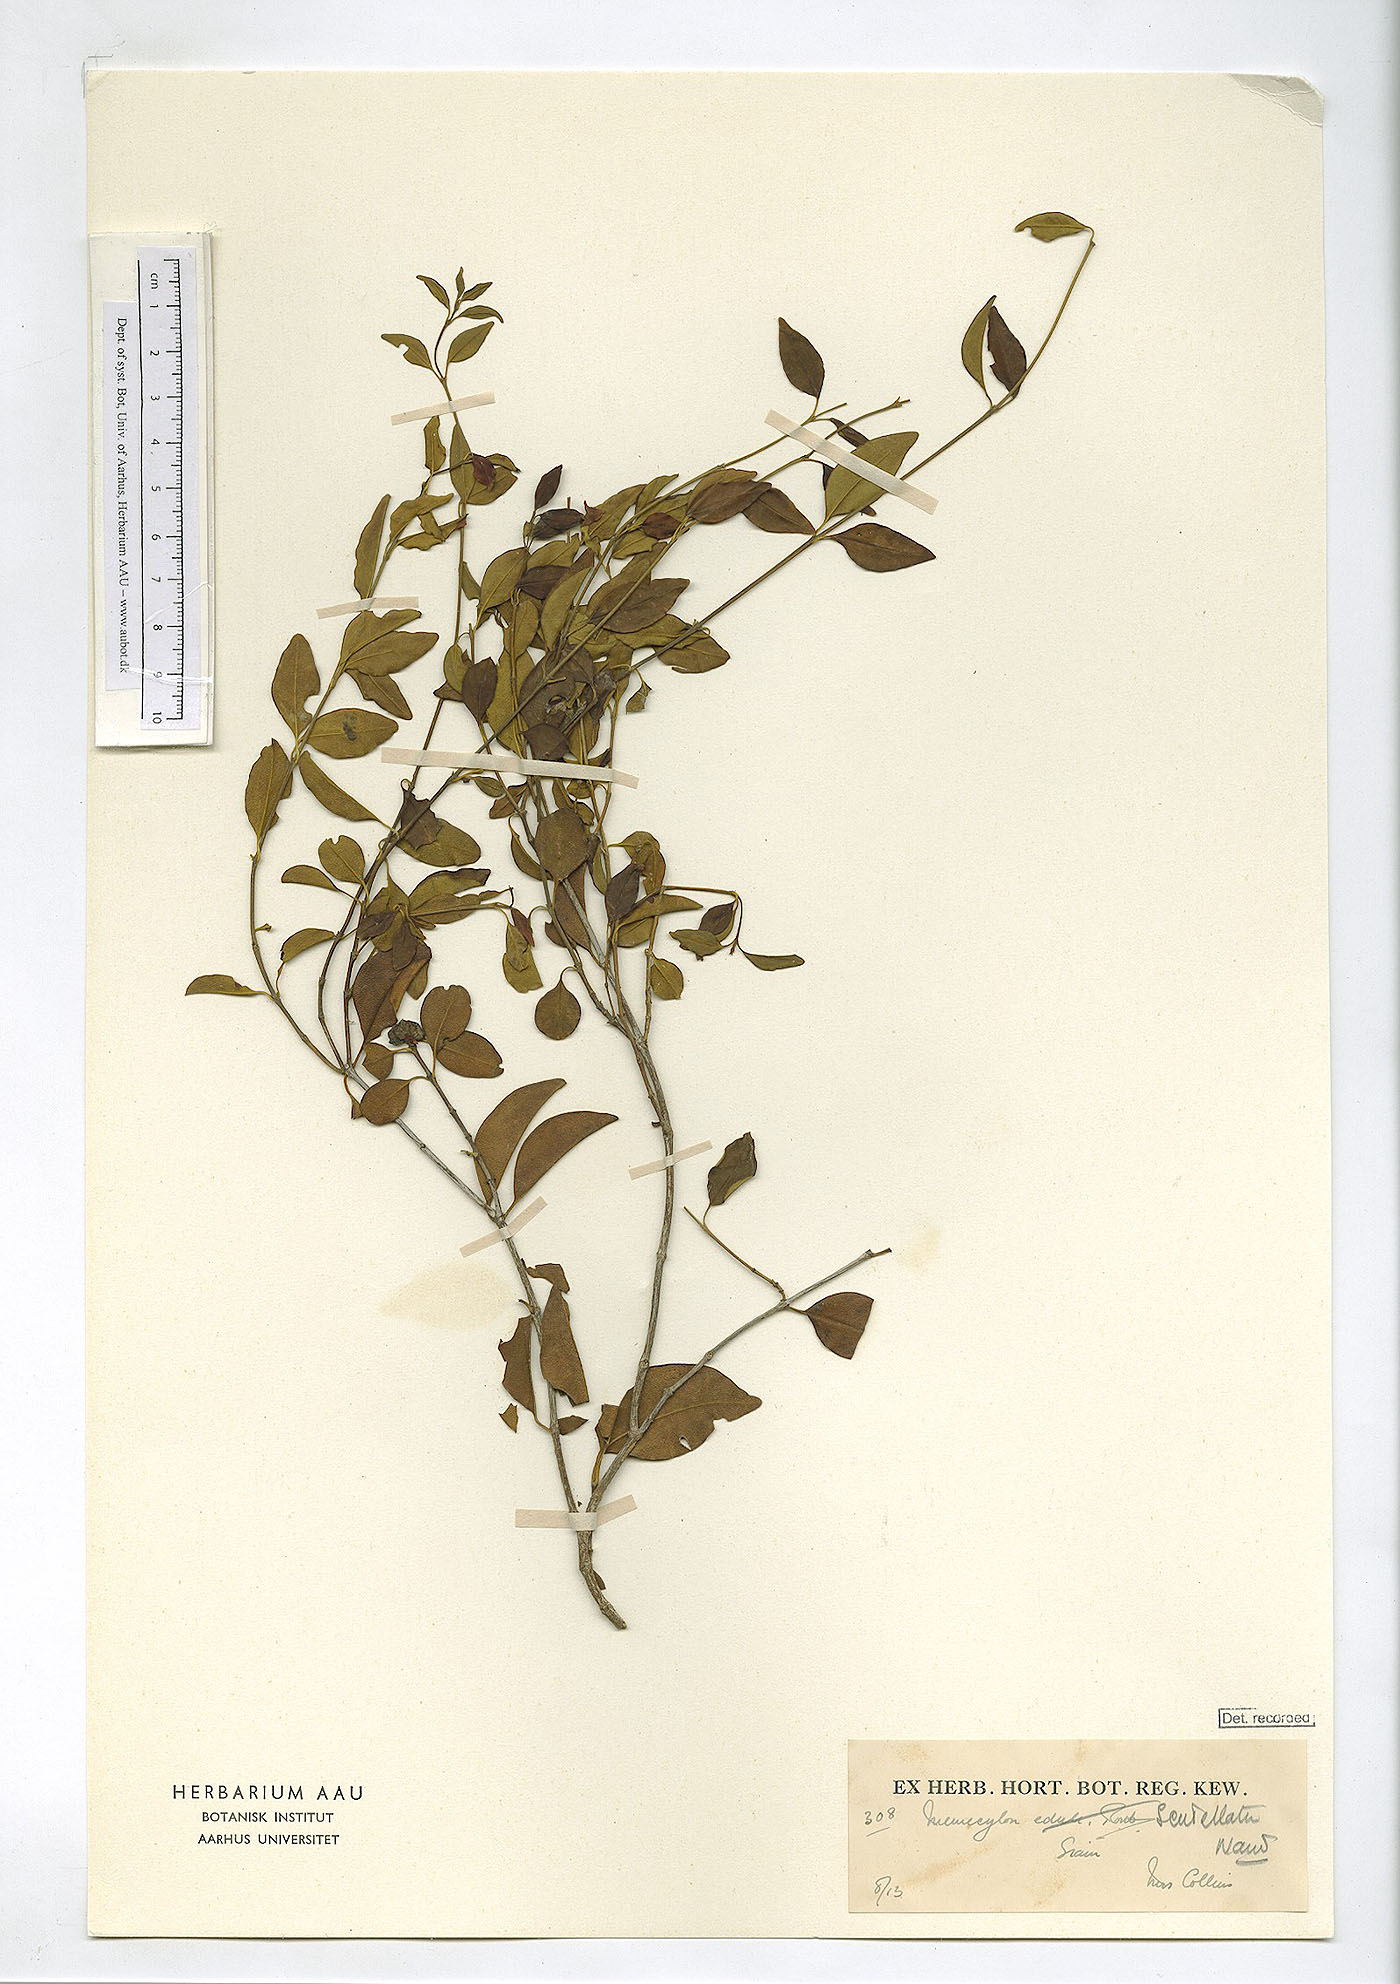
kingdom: Plantae
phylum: Tracheophyta
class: Magnoliopsida
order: Myrtales
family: Melastomataceae
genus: Memecylon
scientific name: Memecylon scutellatum
